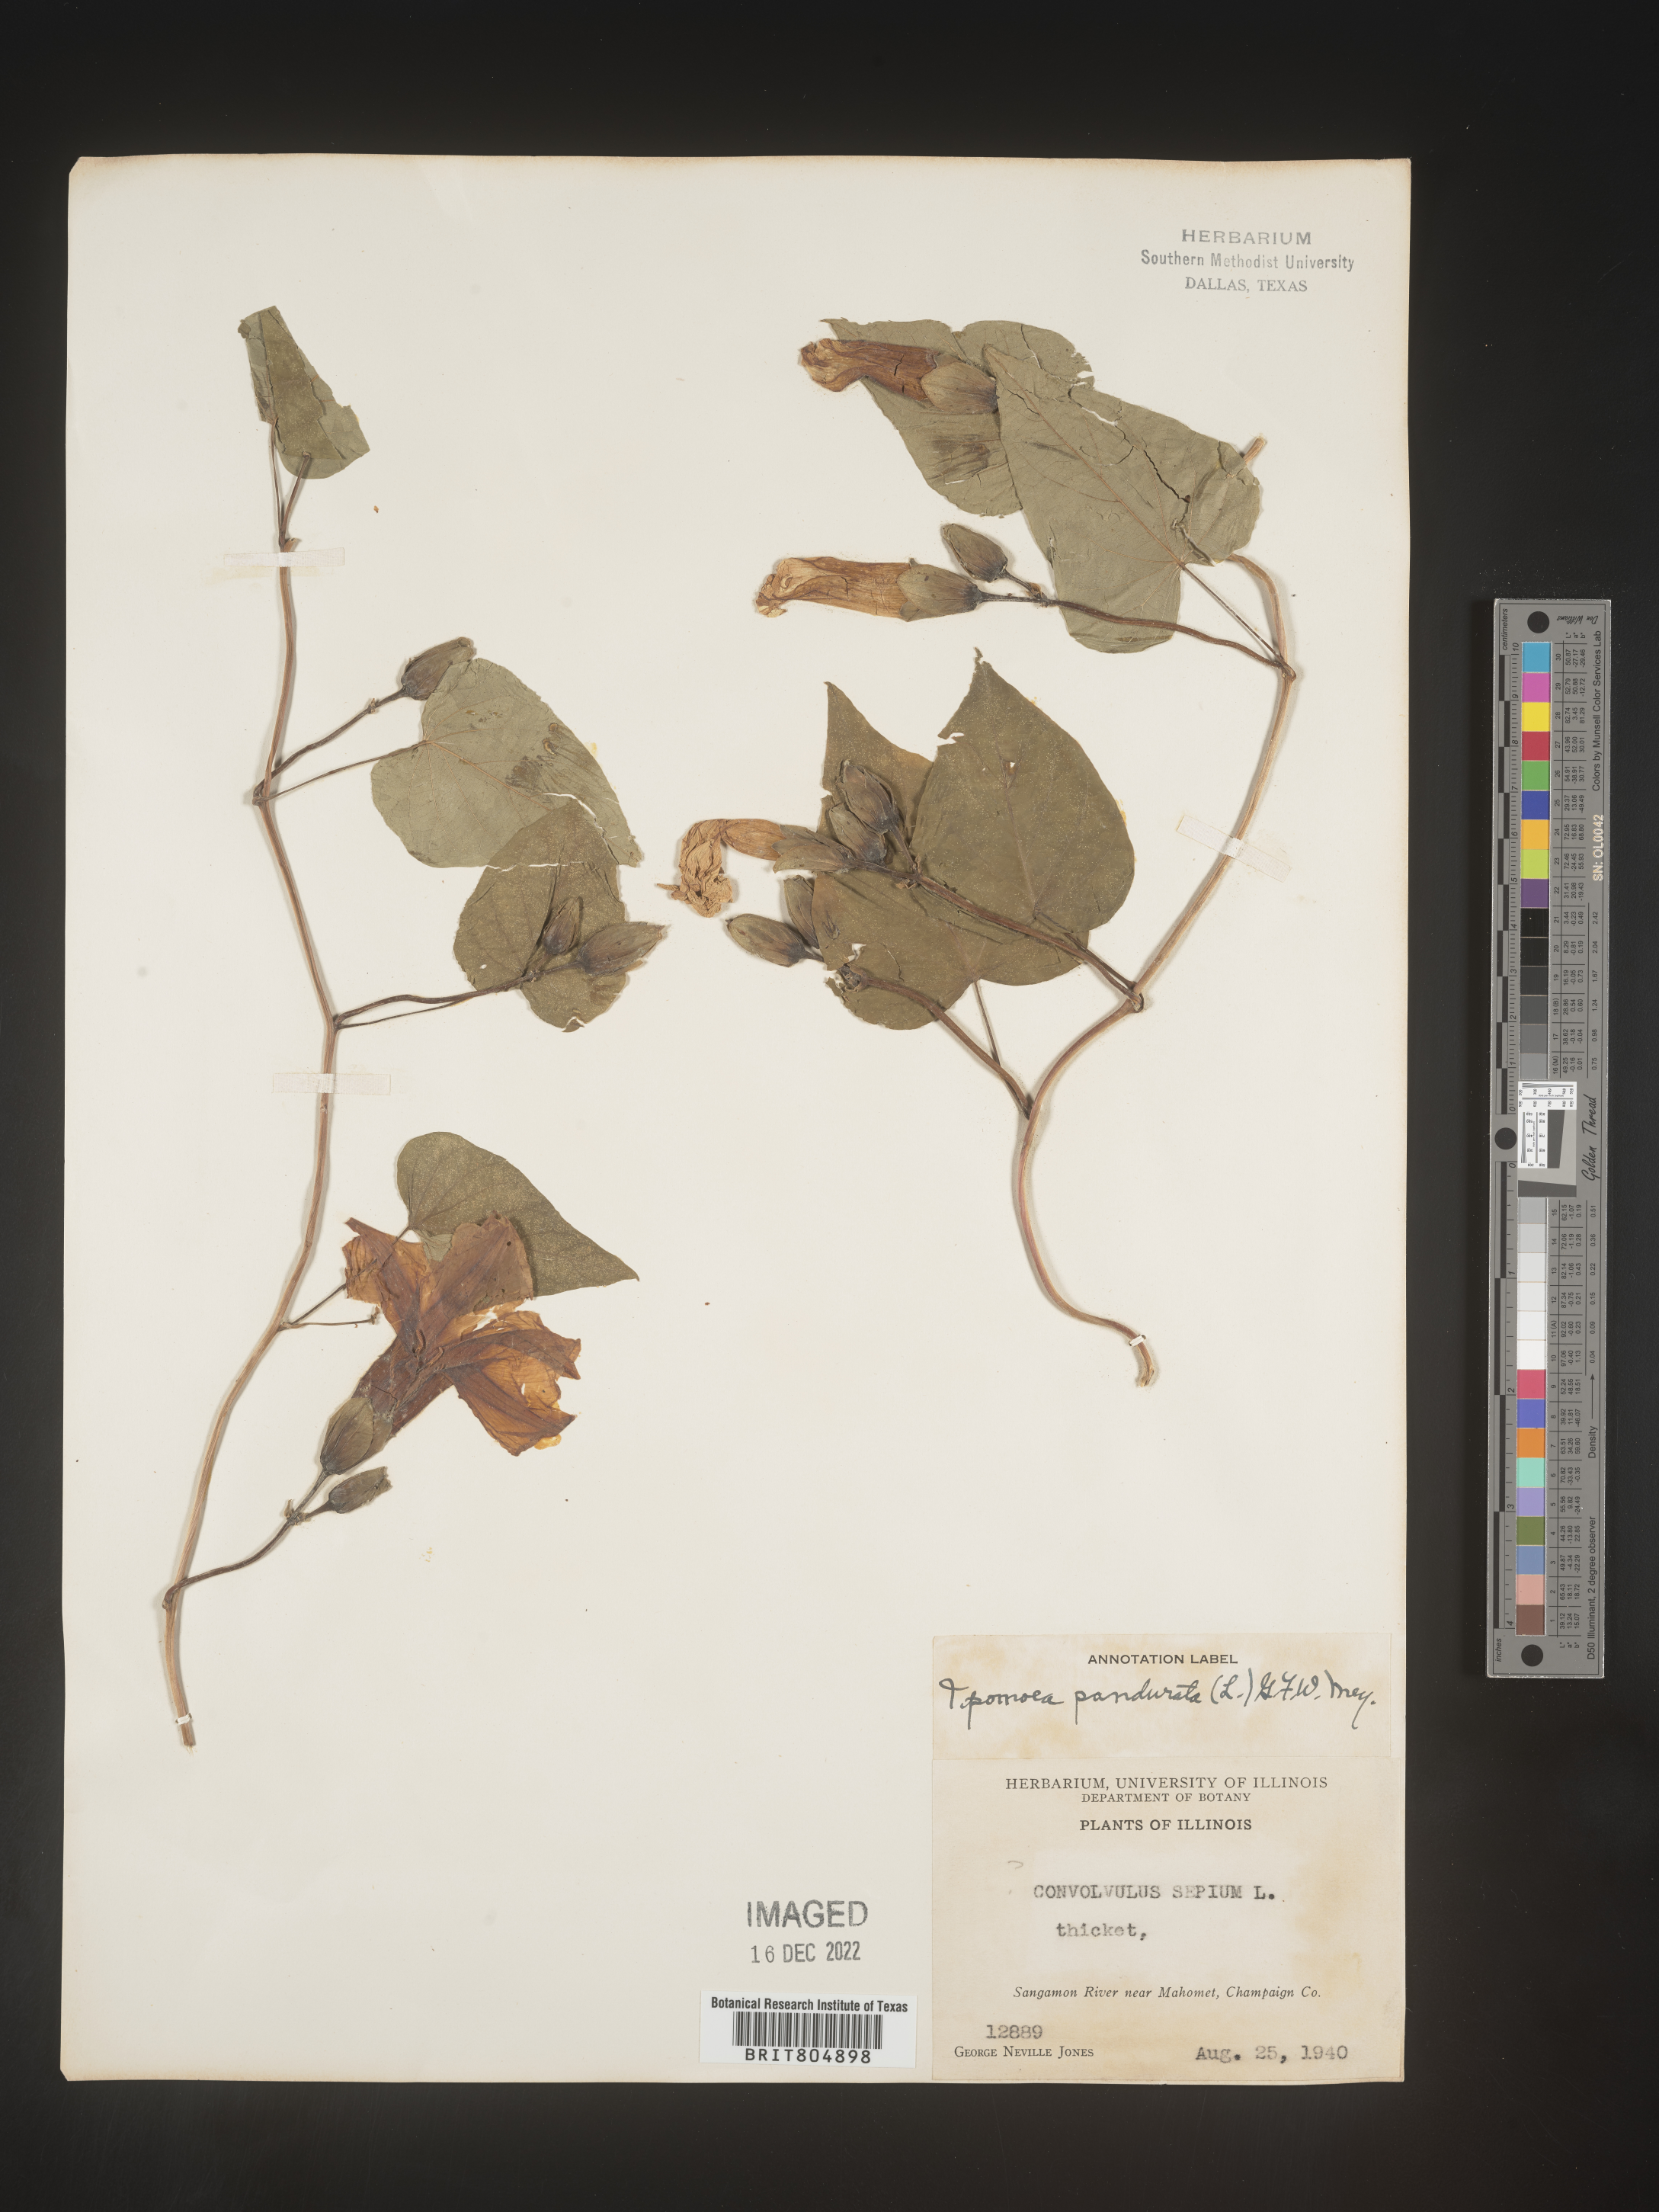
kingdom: Plantae
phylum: Tracheophyta
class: Magnoliopsida
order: Solanales
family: Convolvulaceae
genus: Ipomoea
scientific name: Ipomoea pandurata
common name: Man-of-the-earth
